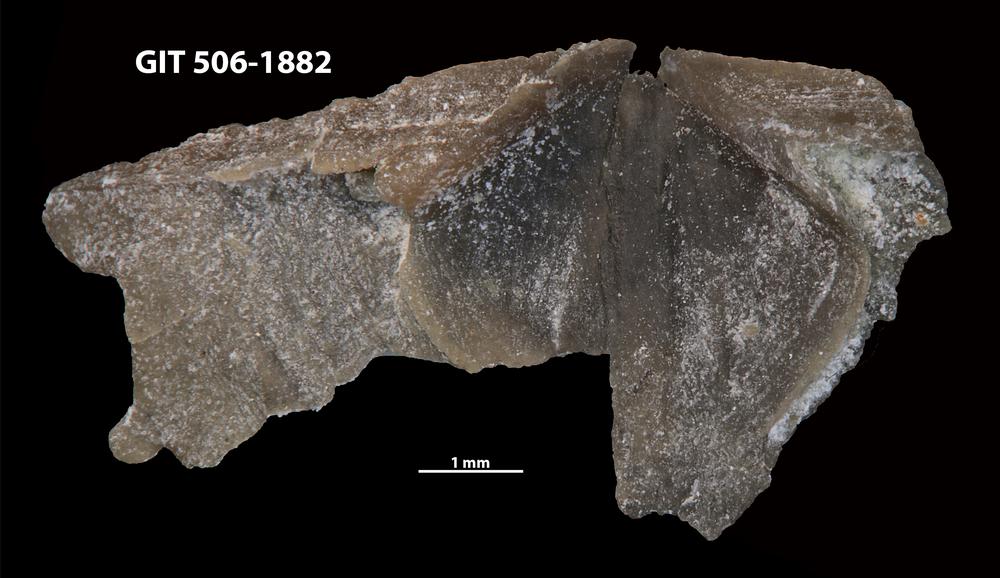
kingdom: Animalia
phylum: Brachiopoda
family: Strophomenidae
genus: Katastrophomena
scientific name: Katastrophomena woodlandensis
